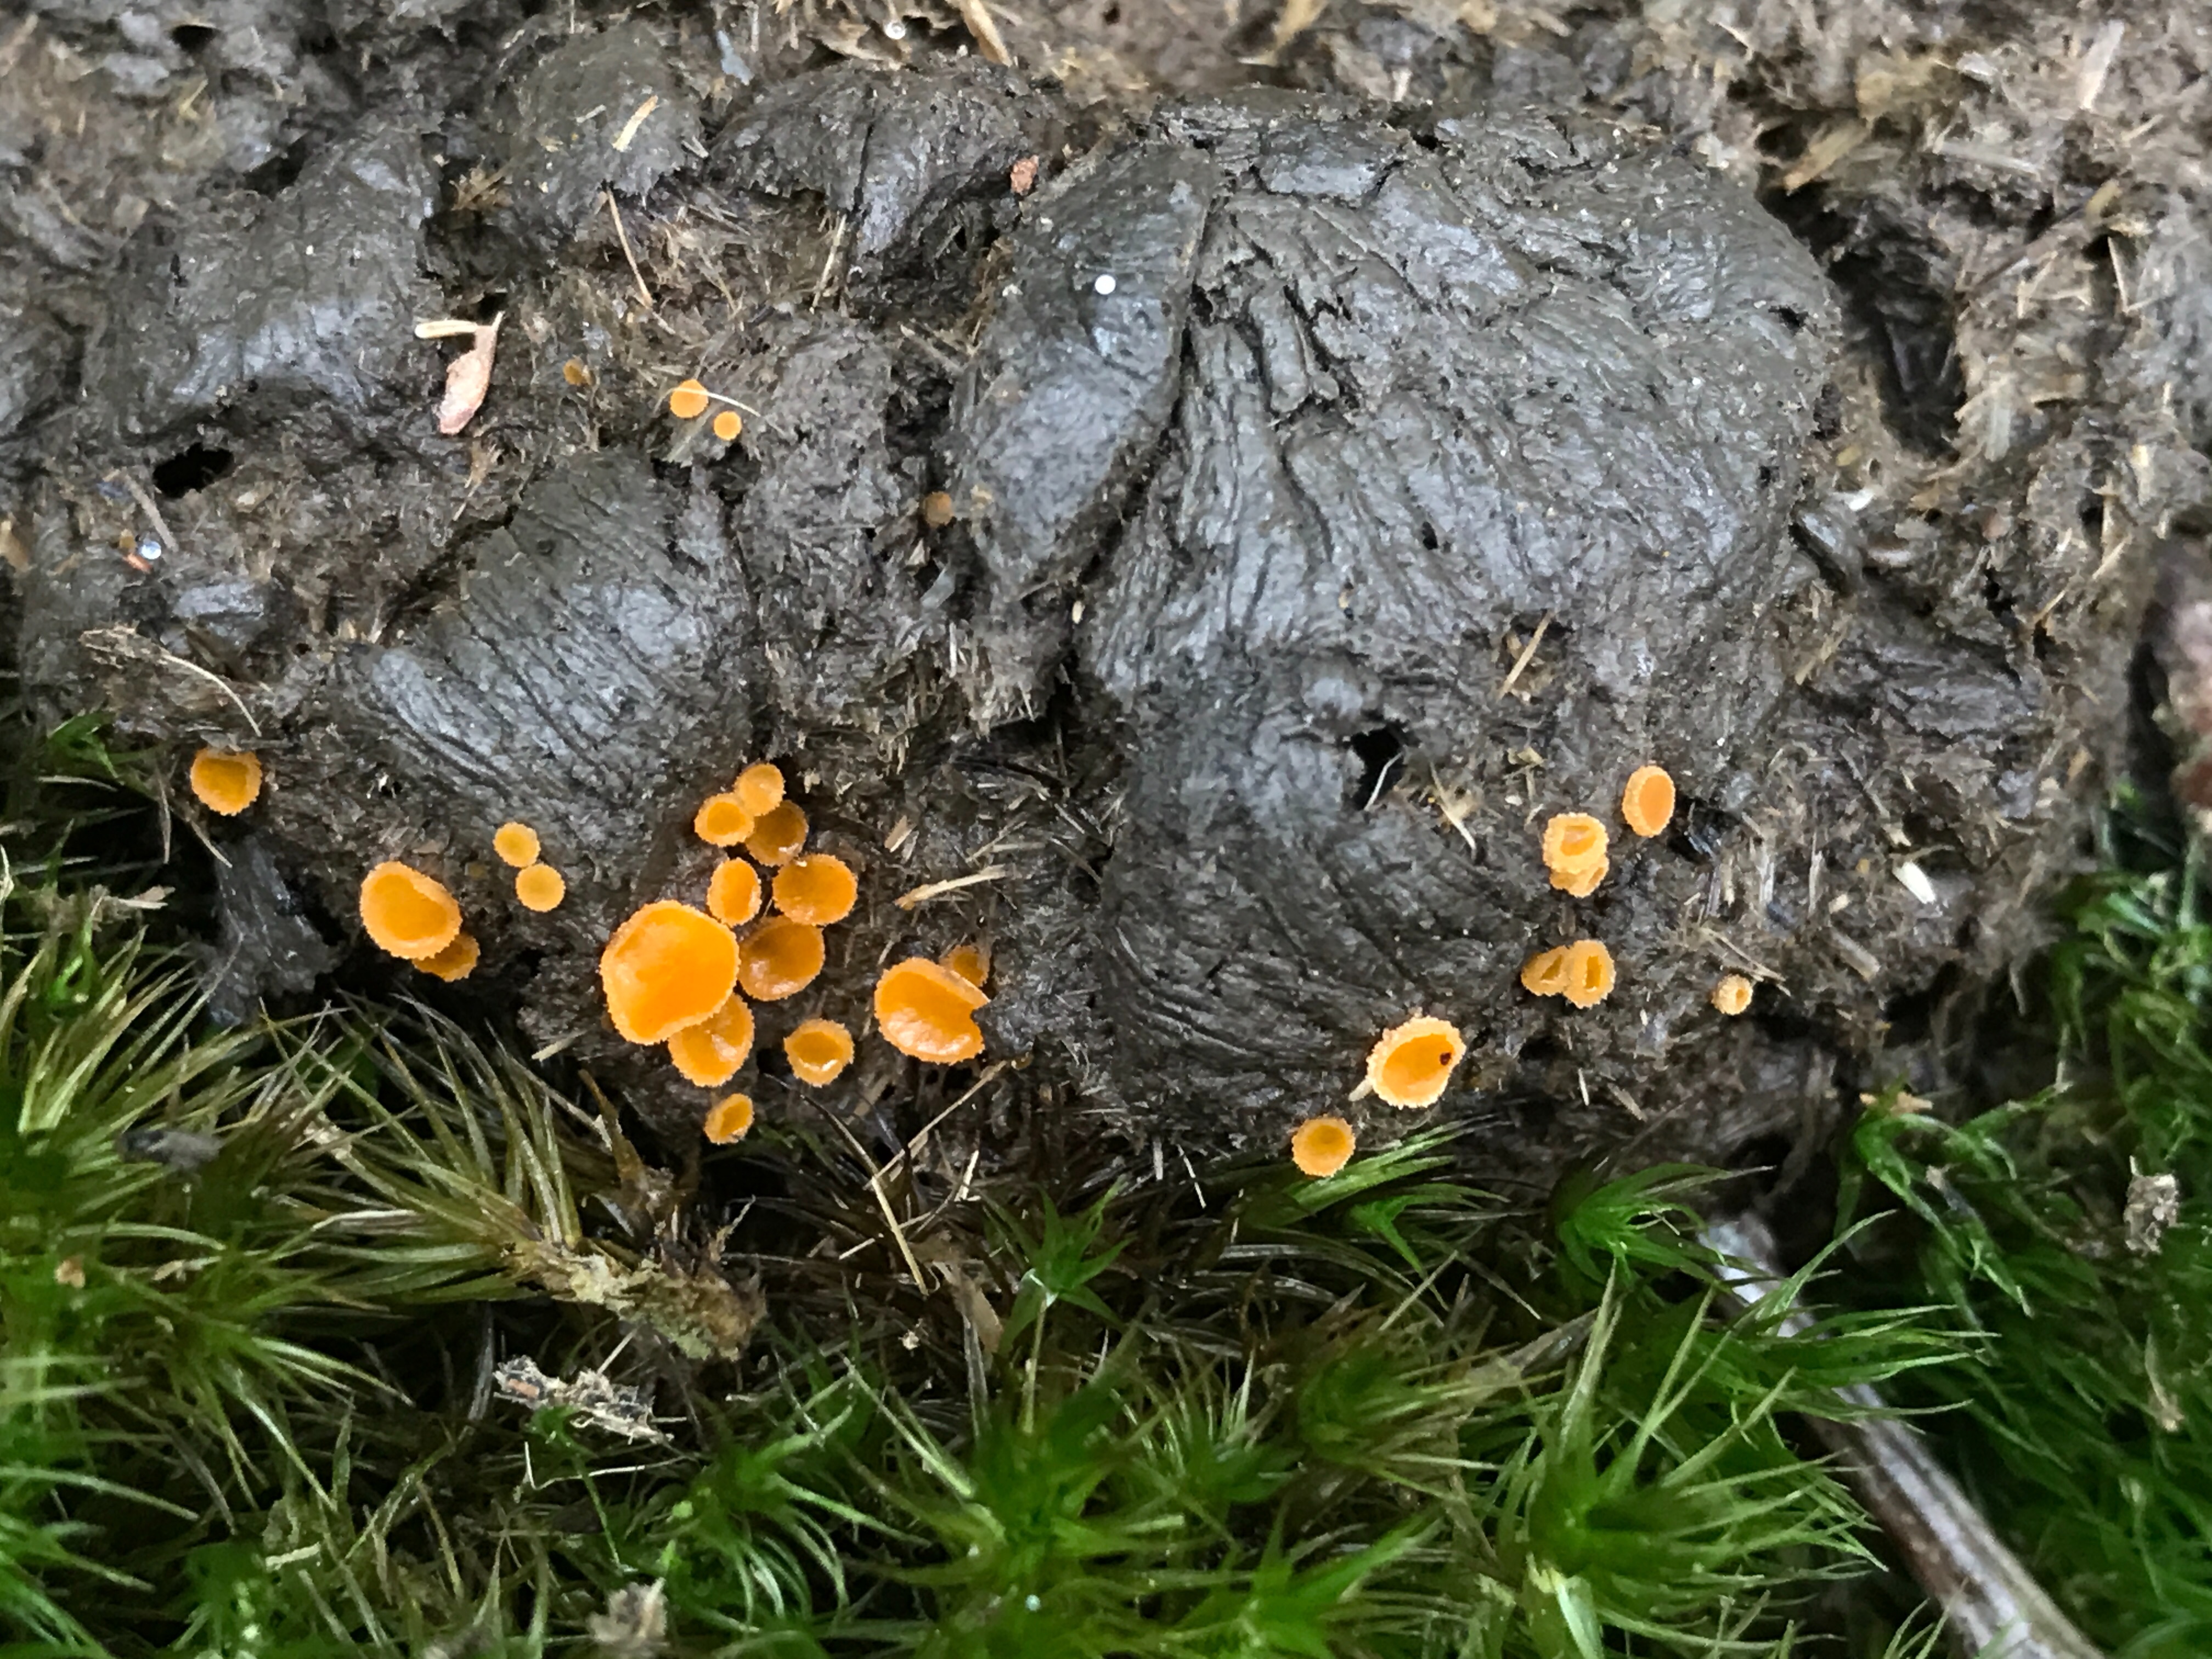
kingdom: Fungi
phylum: Ascomycota
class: Pezizomycetes
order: Pezizales
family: Pyronemataceae
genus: Cheilymenia
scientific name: Cheilymenia
